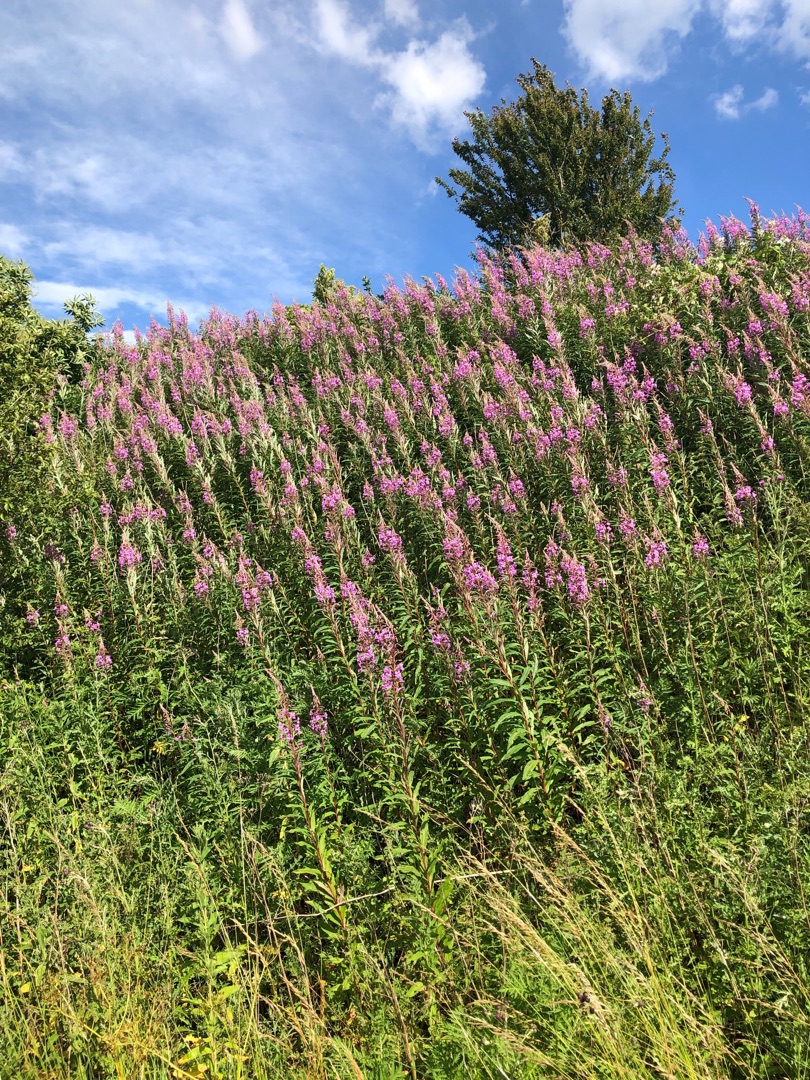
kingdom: Plantae
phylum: Tracheophyta
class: Magnoliopsida
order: Myrtales
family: Onagraceae
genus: Chamaenerion
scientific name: Chamaenerion angustifolium
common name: Gederams
